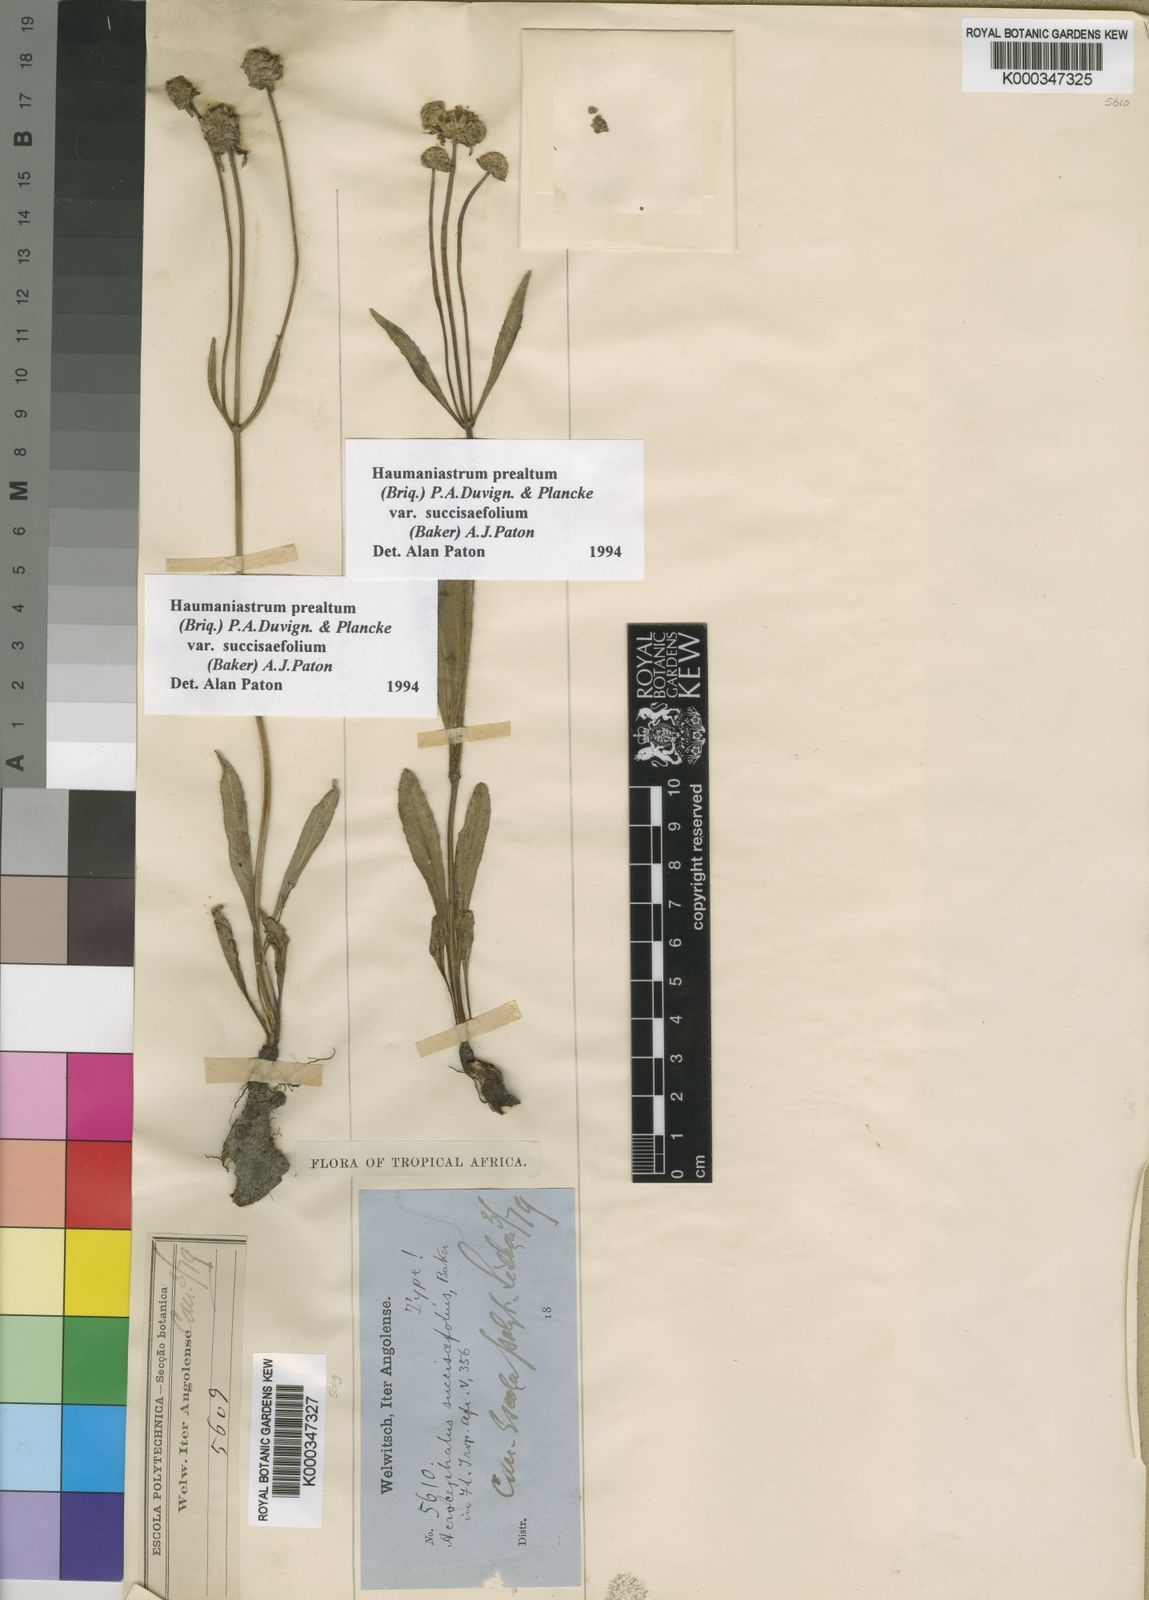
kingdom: Plantae
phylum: Tracheophyta
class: Magnoliopsida
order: Lamiales
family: Lamiaceae
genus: Haumaniastrum
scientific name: Haumaniastrum
